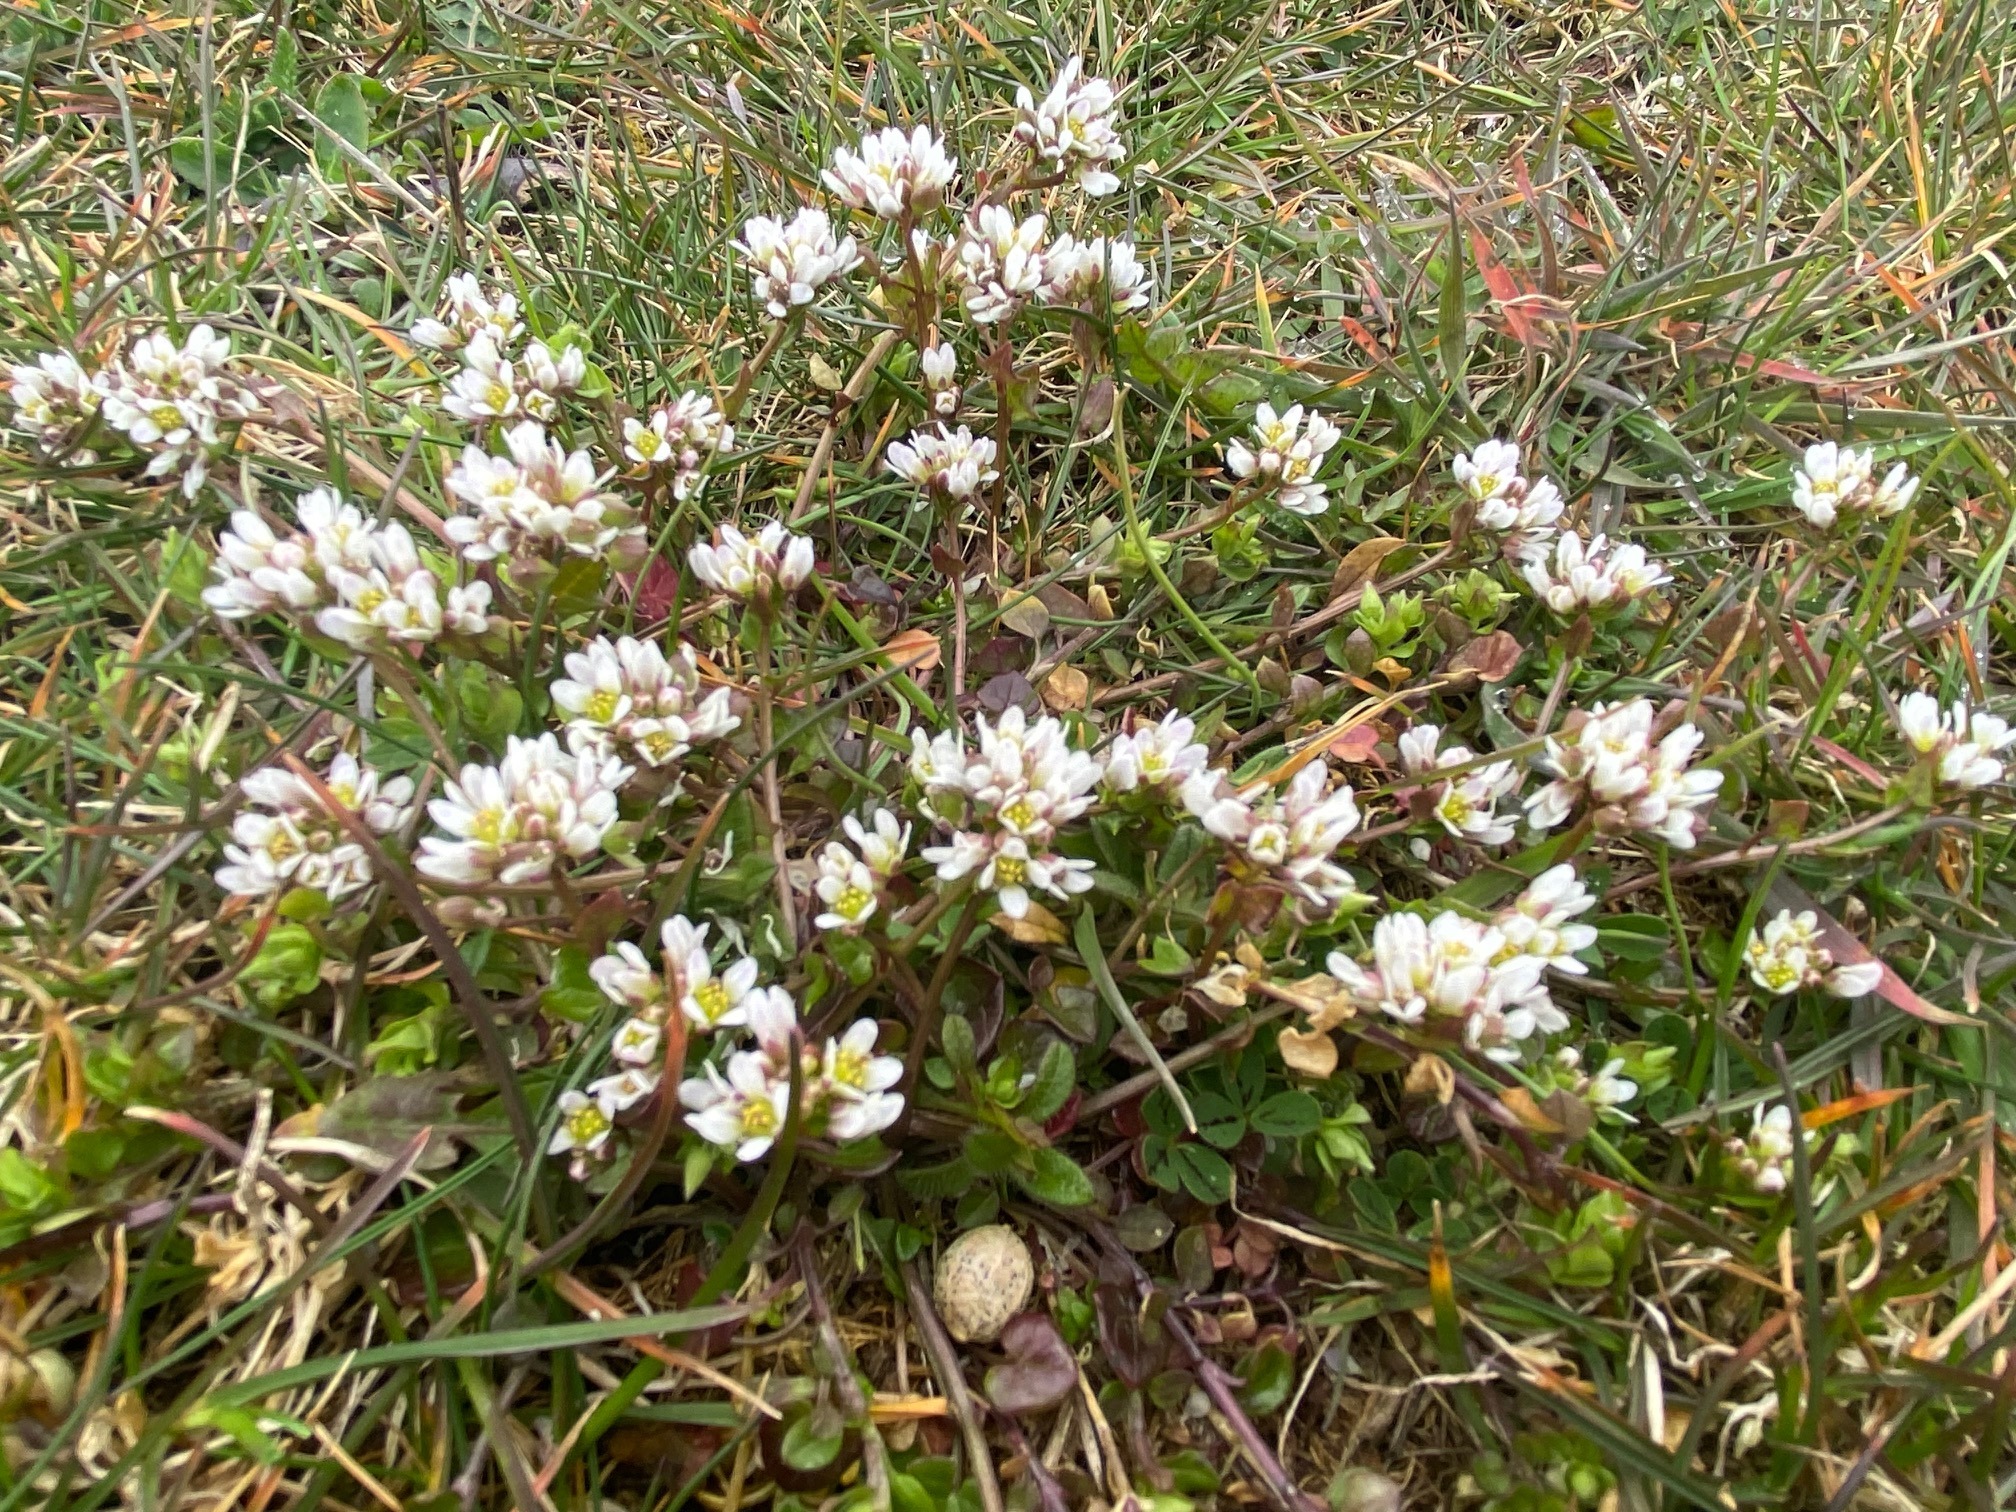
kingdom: Plantae
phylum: Tracheophyta
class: Magnoliopsida
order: Brassicales
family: Brassicaceae
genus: Cochlearia
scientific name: Cochlearia danica
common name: Dansk kokleare
